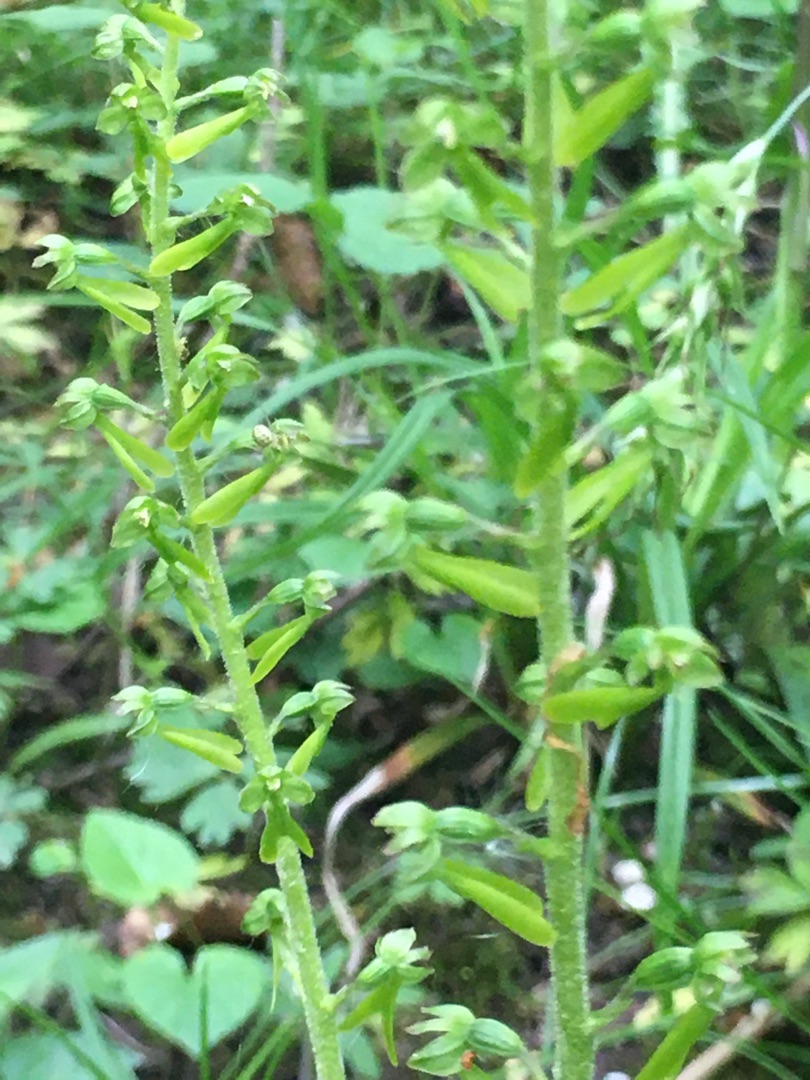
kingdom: Plantae
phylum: Tracheophyta
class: Liliopsida
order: Asparagales
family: Orchidaceae
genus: Neottia
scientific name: Neottia ovata
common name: Ægbladet fliglæbe
